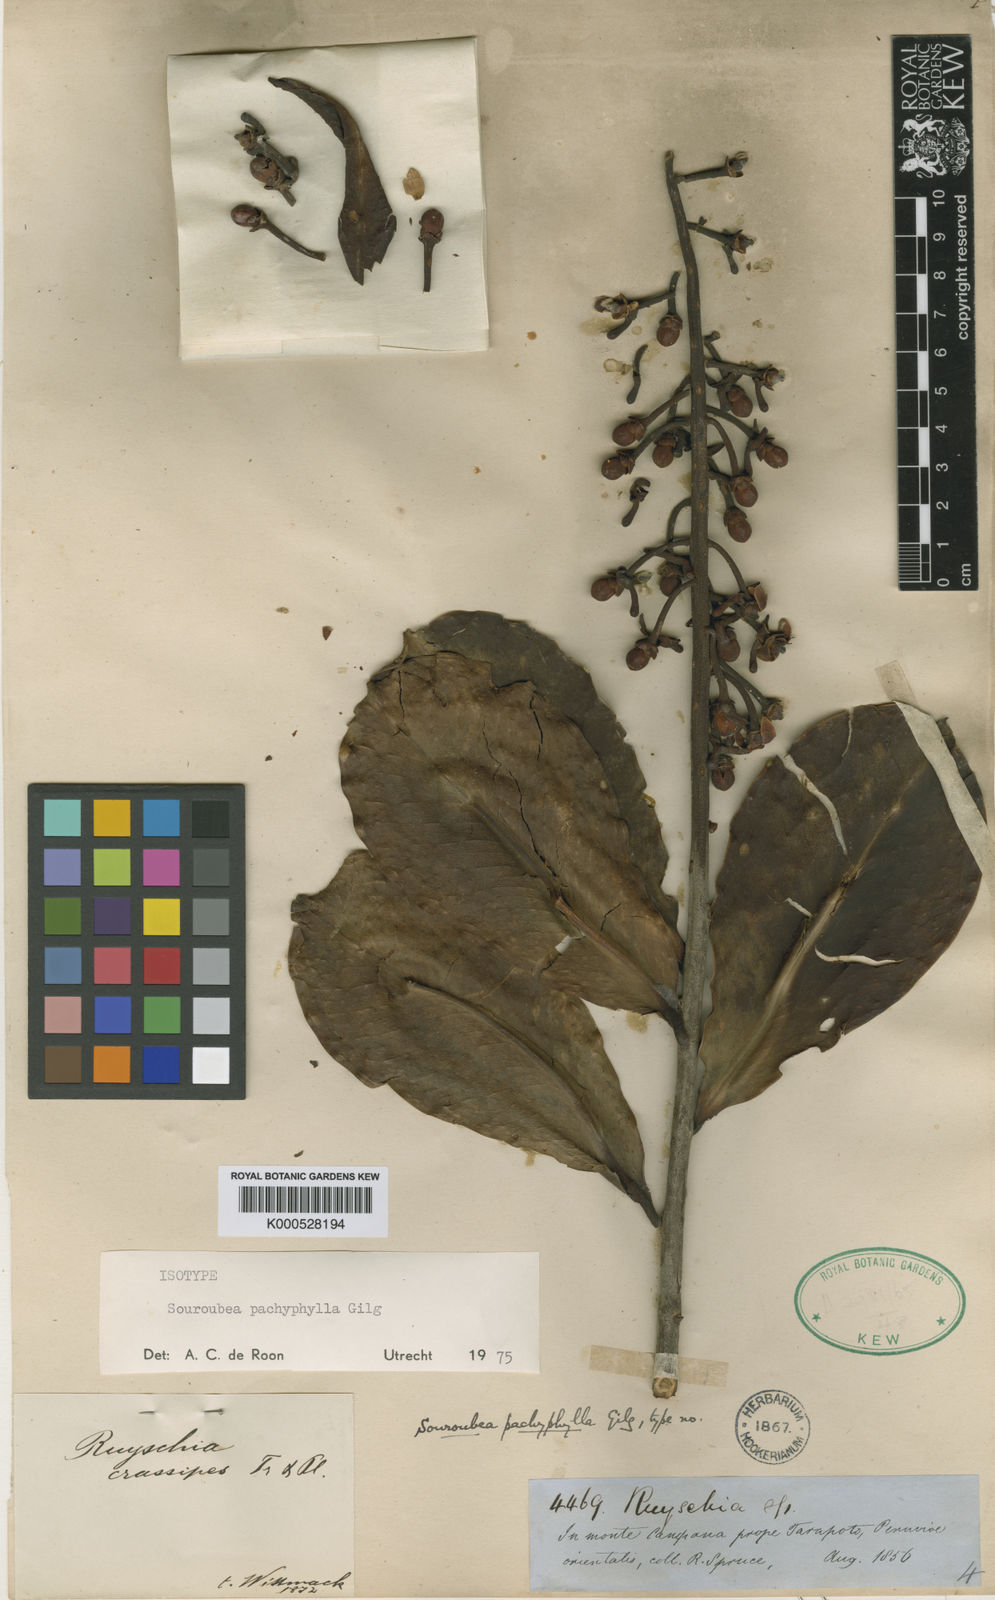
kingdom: Plantae
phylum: Tracheophyta
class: Magnoliopsida
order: Ericales
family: Marcgraviaceae
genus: Souroubea
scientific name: Souroubea pachyphylla
